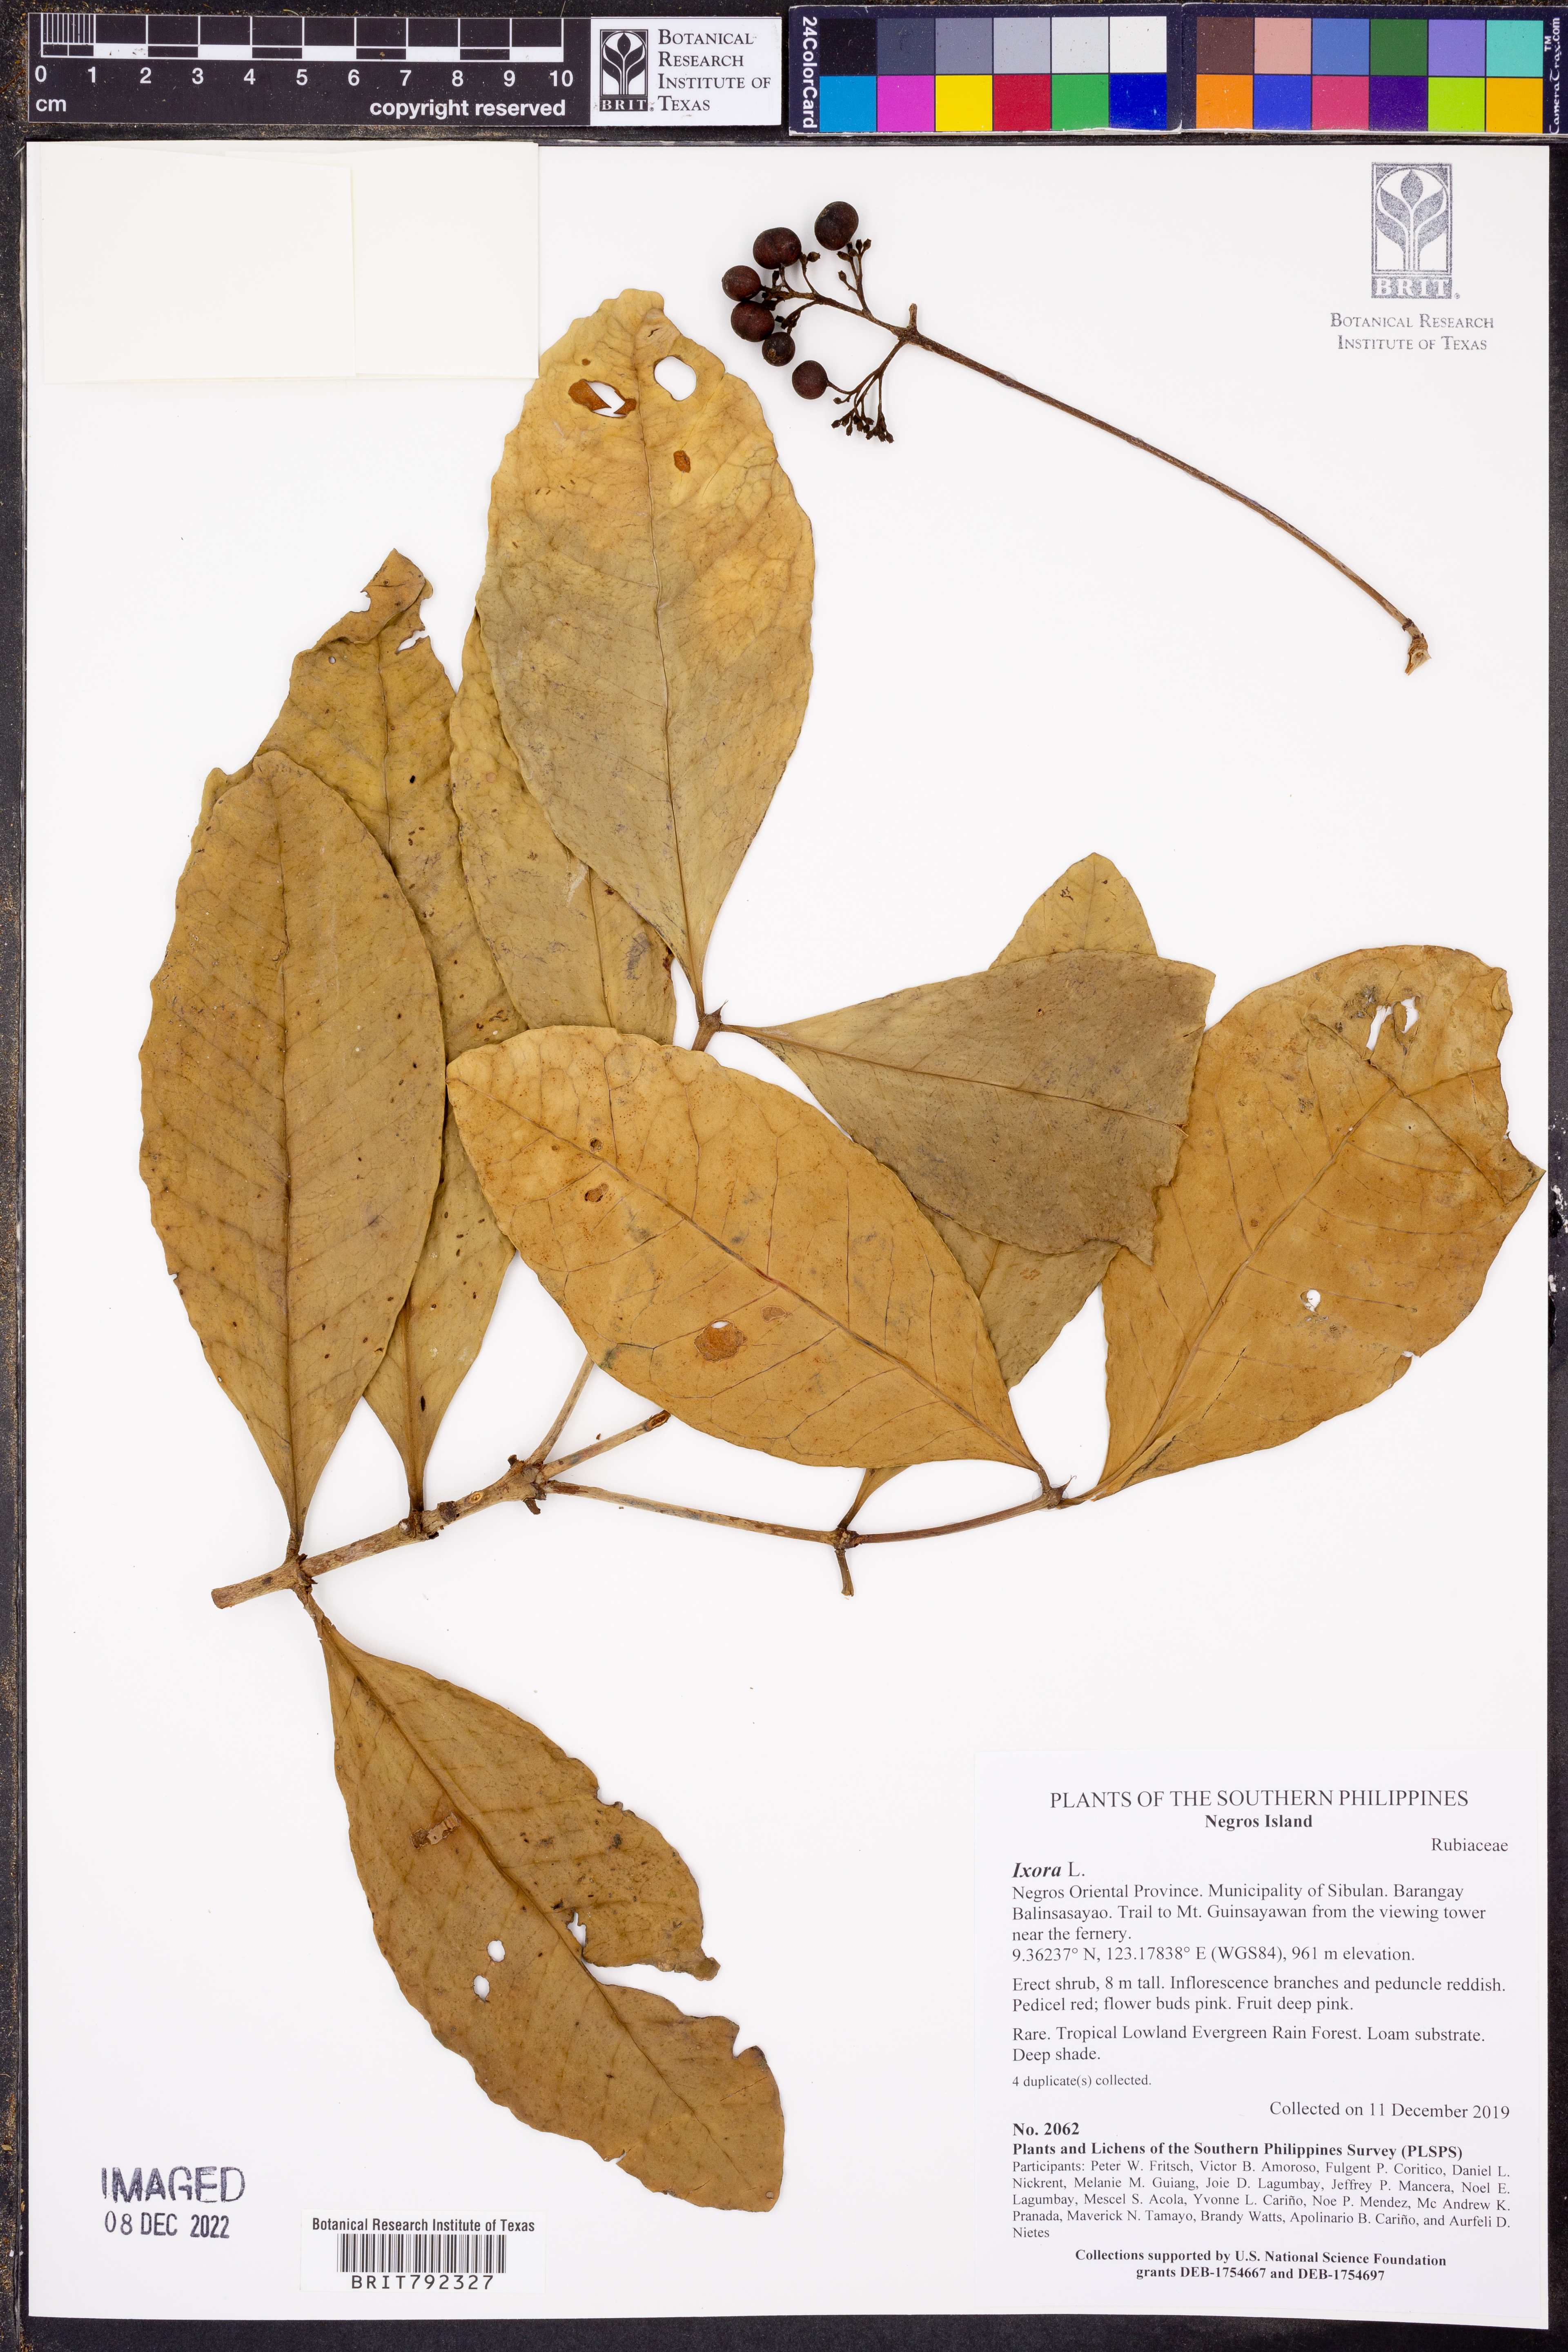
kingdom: Plantae
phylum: Tracheophyta
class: Magnoliopsida
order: Gentianales
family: Rubiaceae
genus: Ixora
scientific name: Ixora
